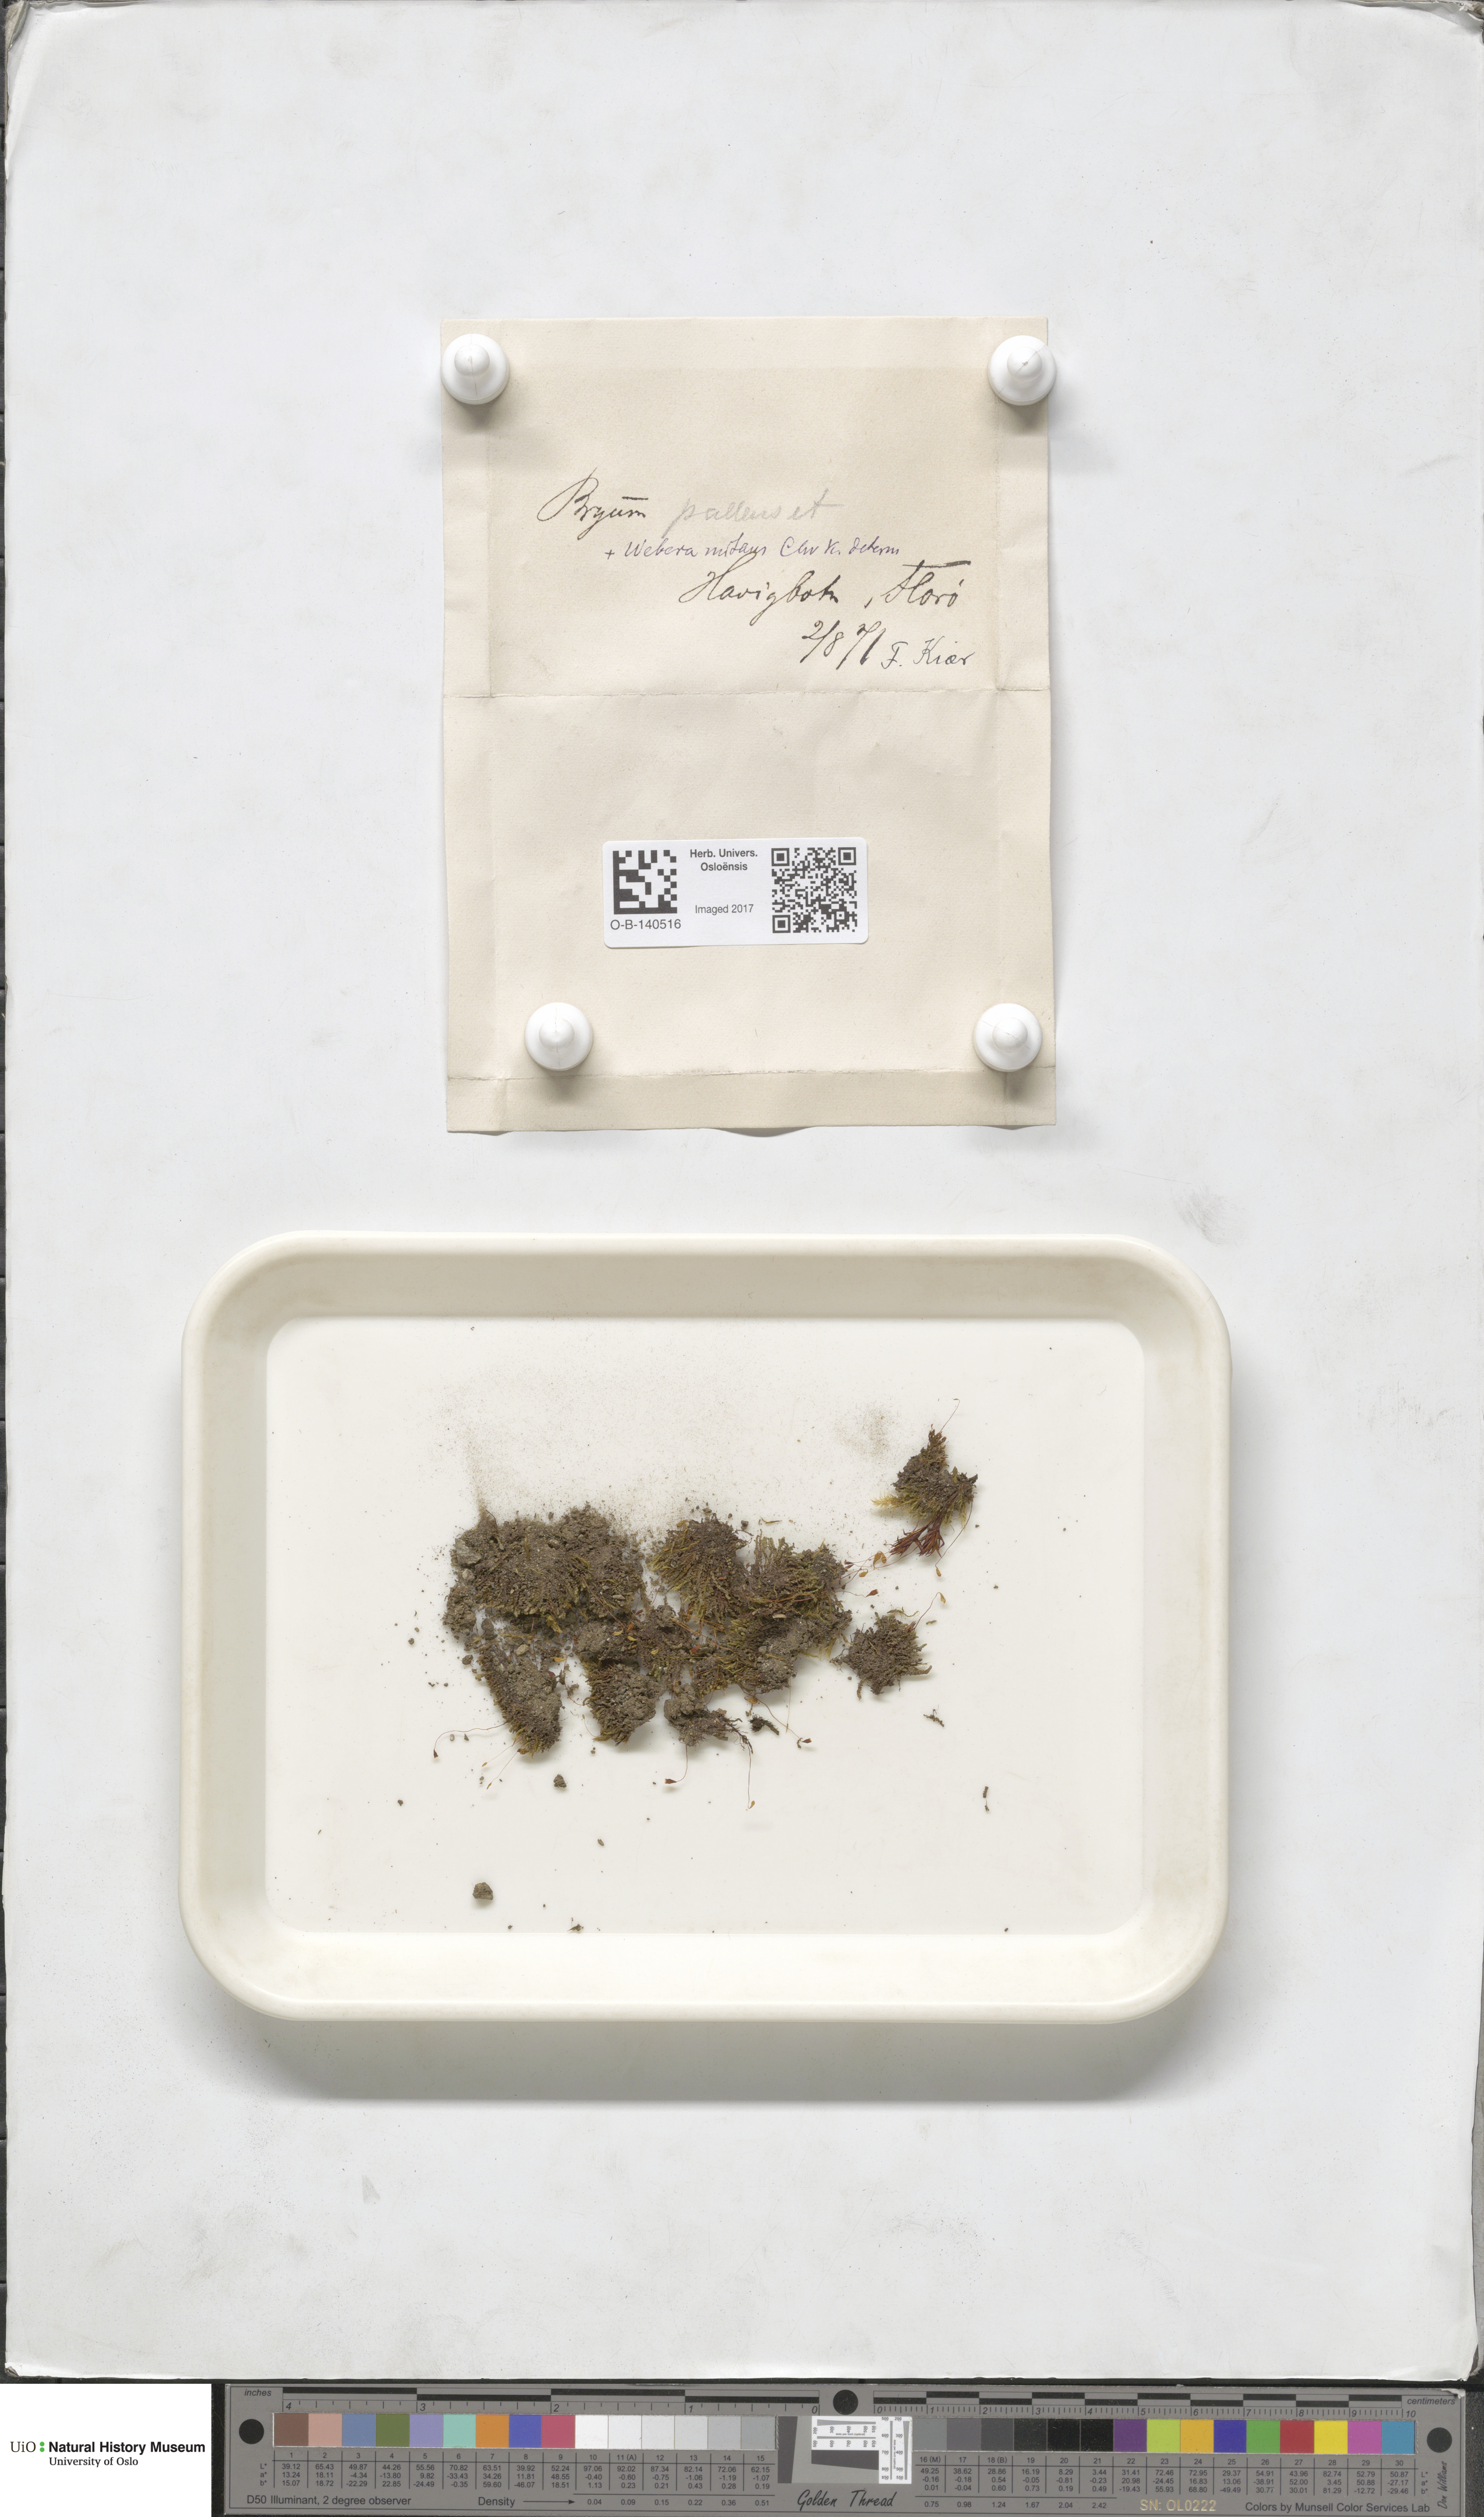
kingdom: Plantae
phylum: Bryophyta
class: Bryopsida
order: Bryales
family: Bryaceae
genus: Ptychostomum
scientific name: Ptychostomum pallens
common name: Pale thread-moss
